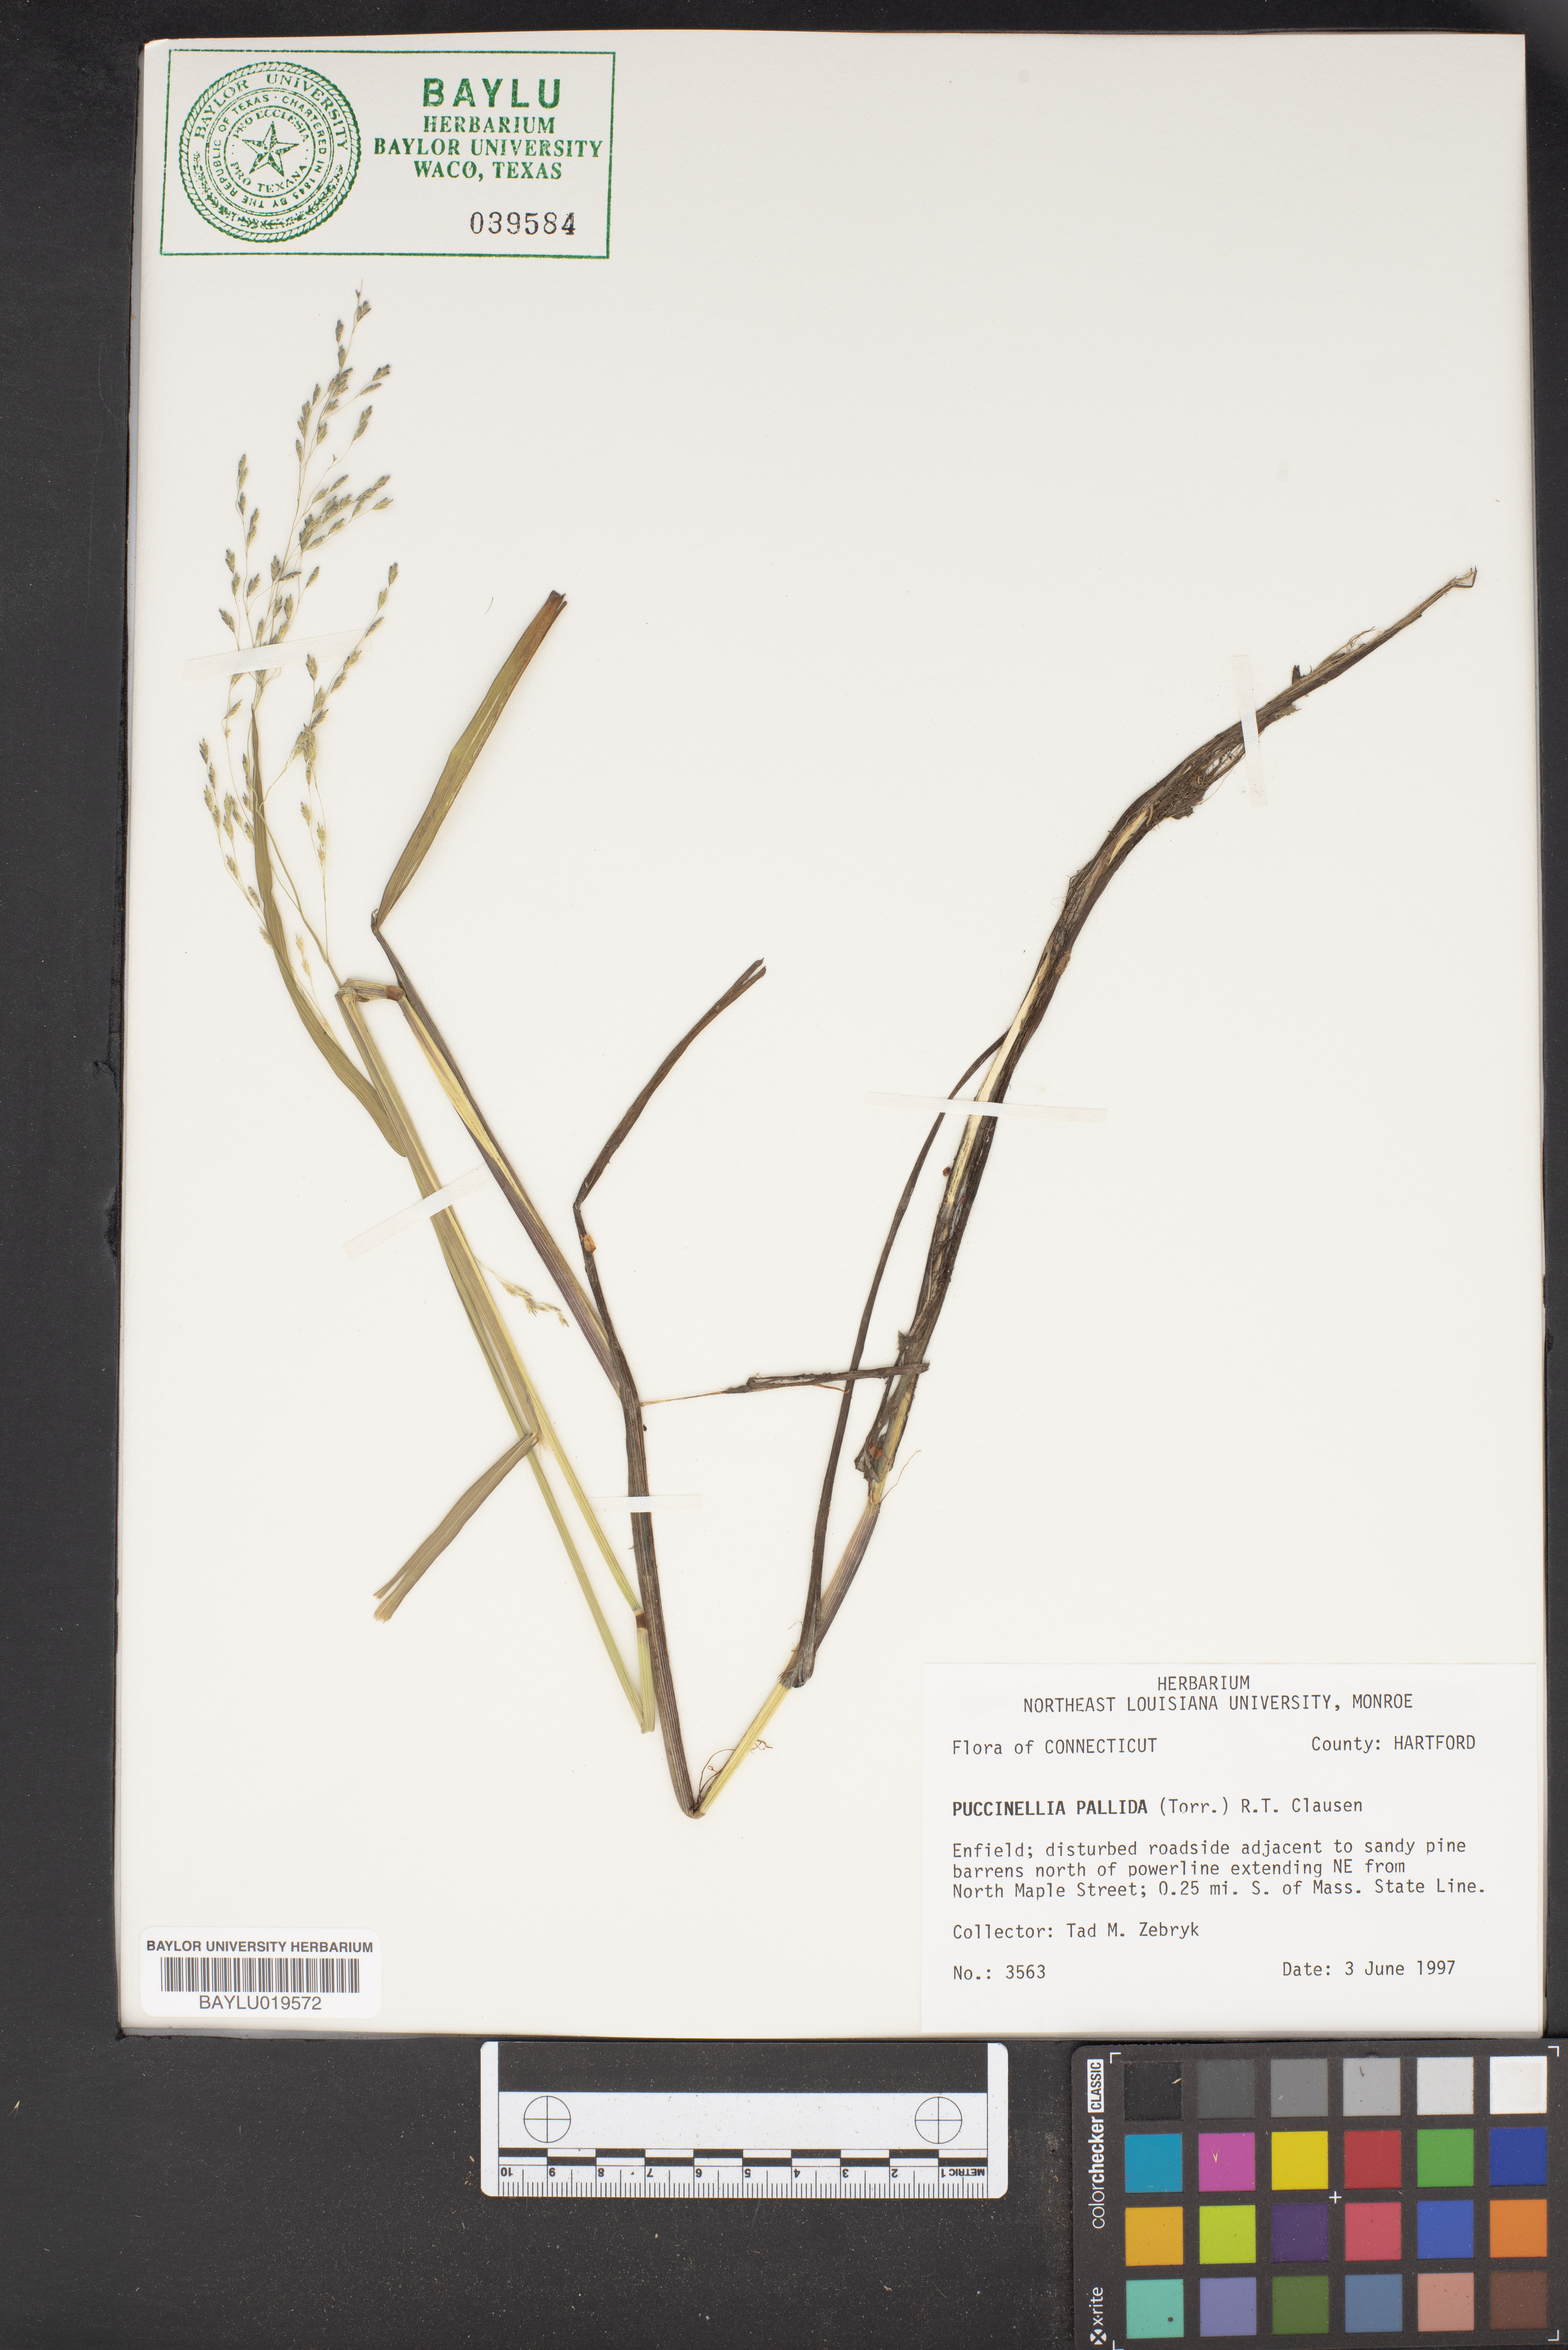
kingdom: Plantae
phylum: Tracheophyta
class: Liliopsida
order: Poales
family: Poaceae
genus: Torreyochloa
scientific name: Torreyochloa pallida
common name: Pale false mannagrass
